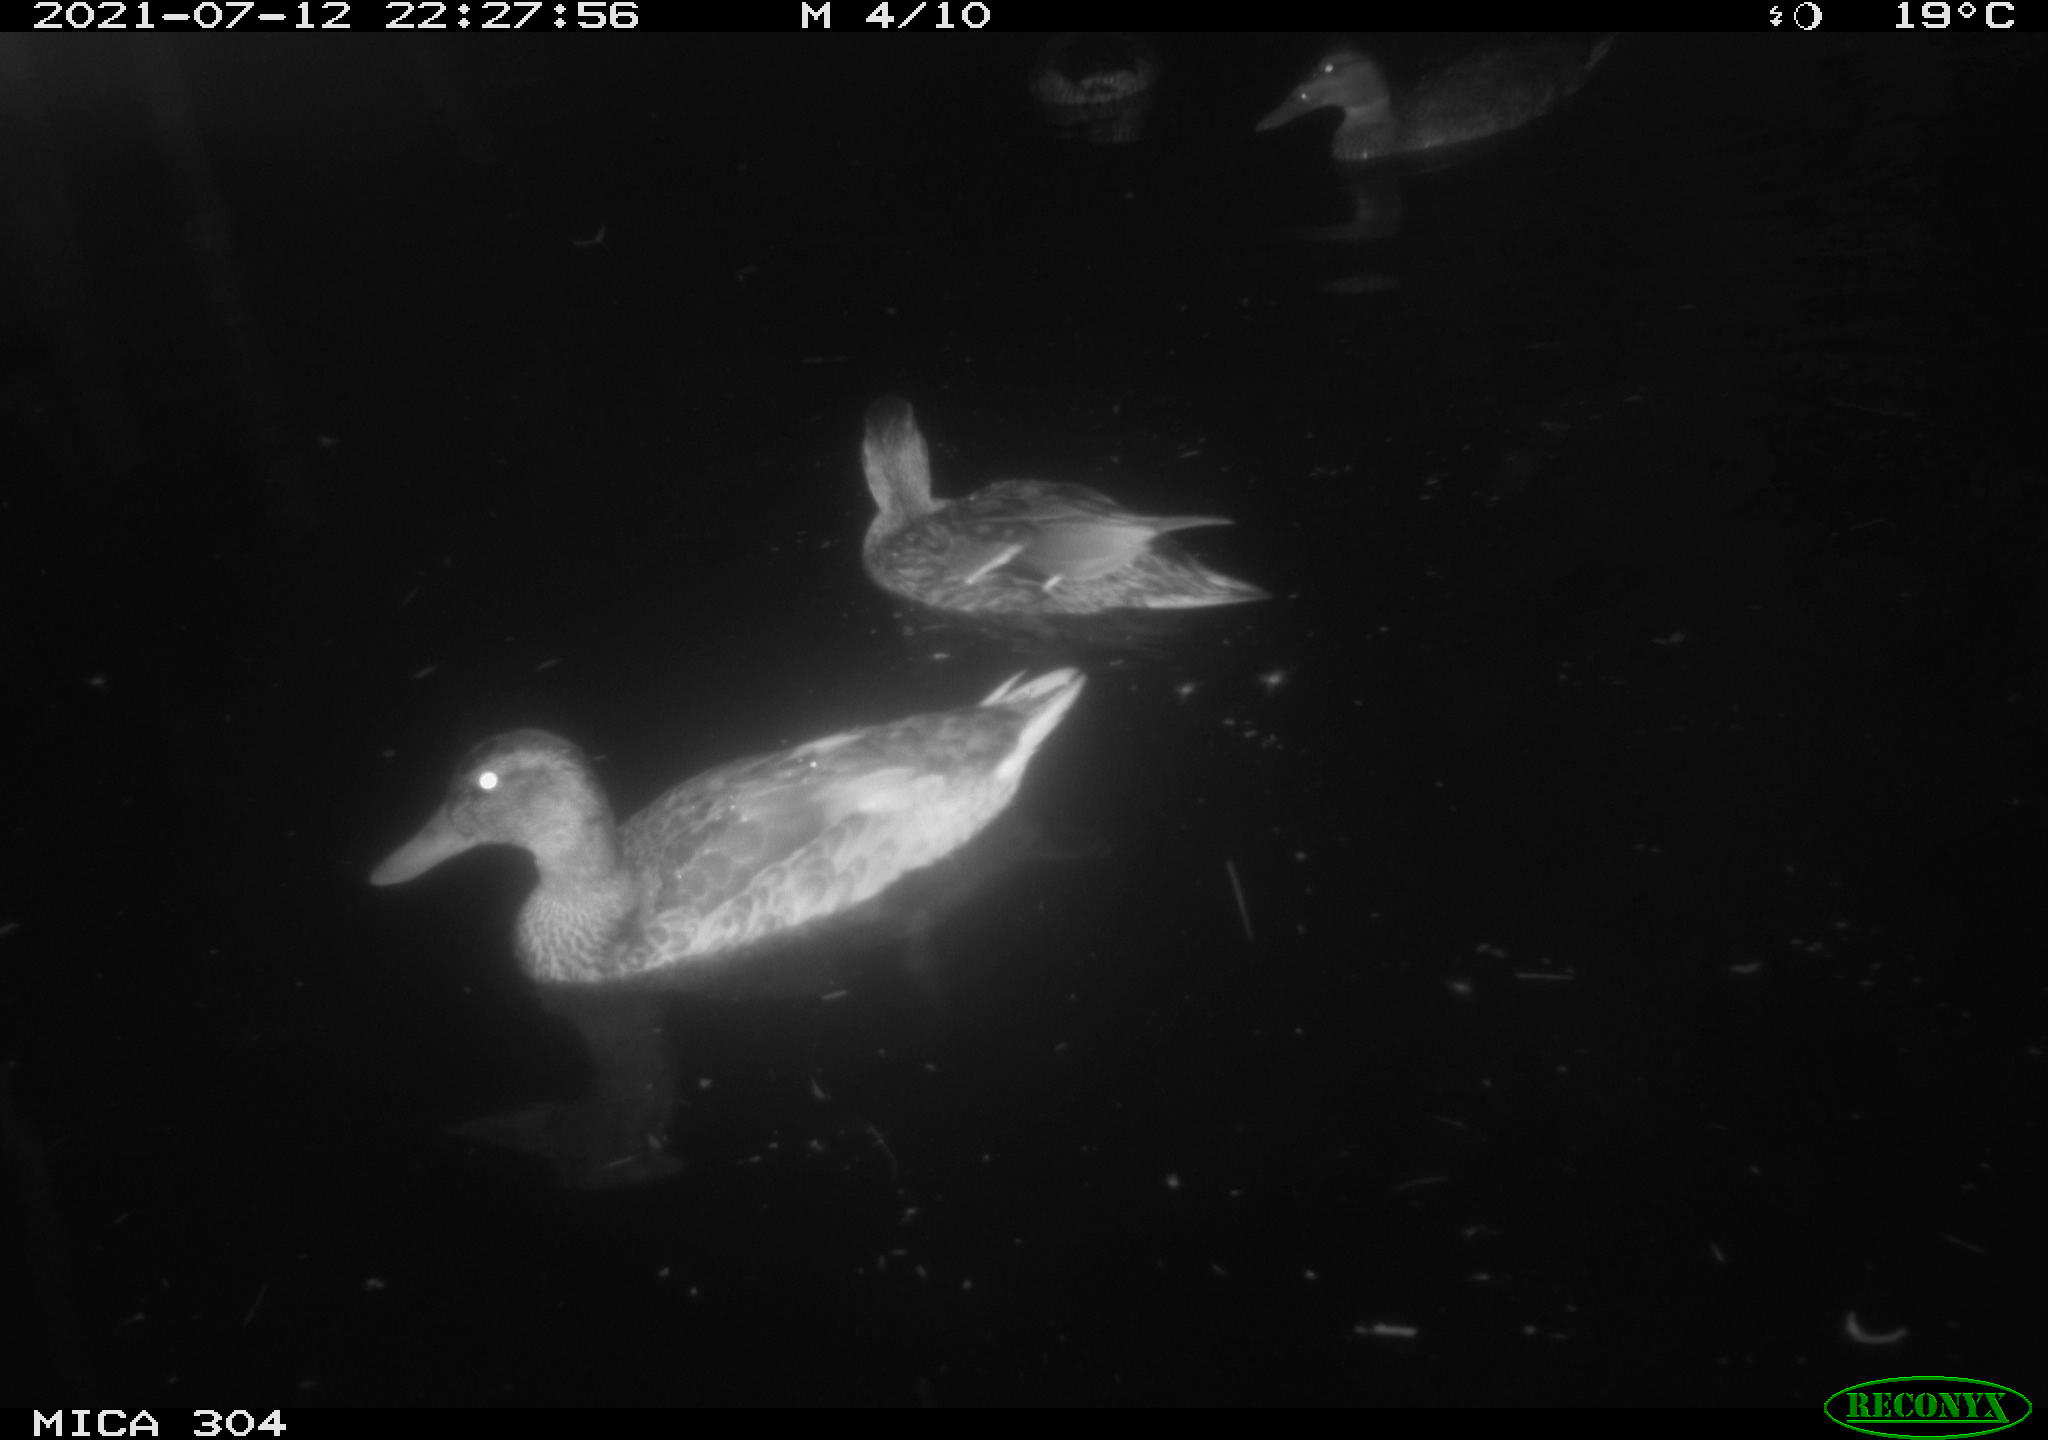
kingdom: Animalia
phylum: Chordata
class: Aves
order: Anseriformes
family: Anatidae
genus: Mareca
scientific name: Mareca strepera
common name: Gadwall
